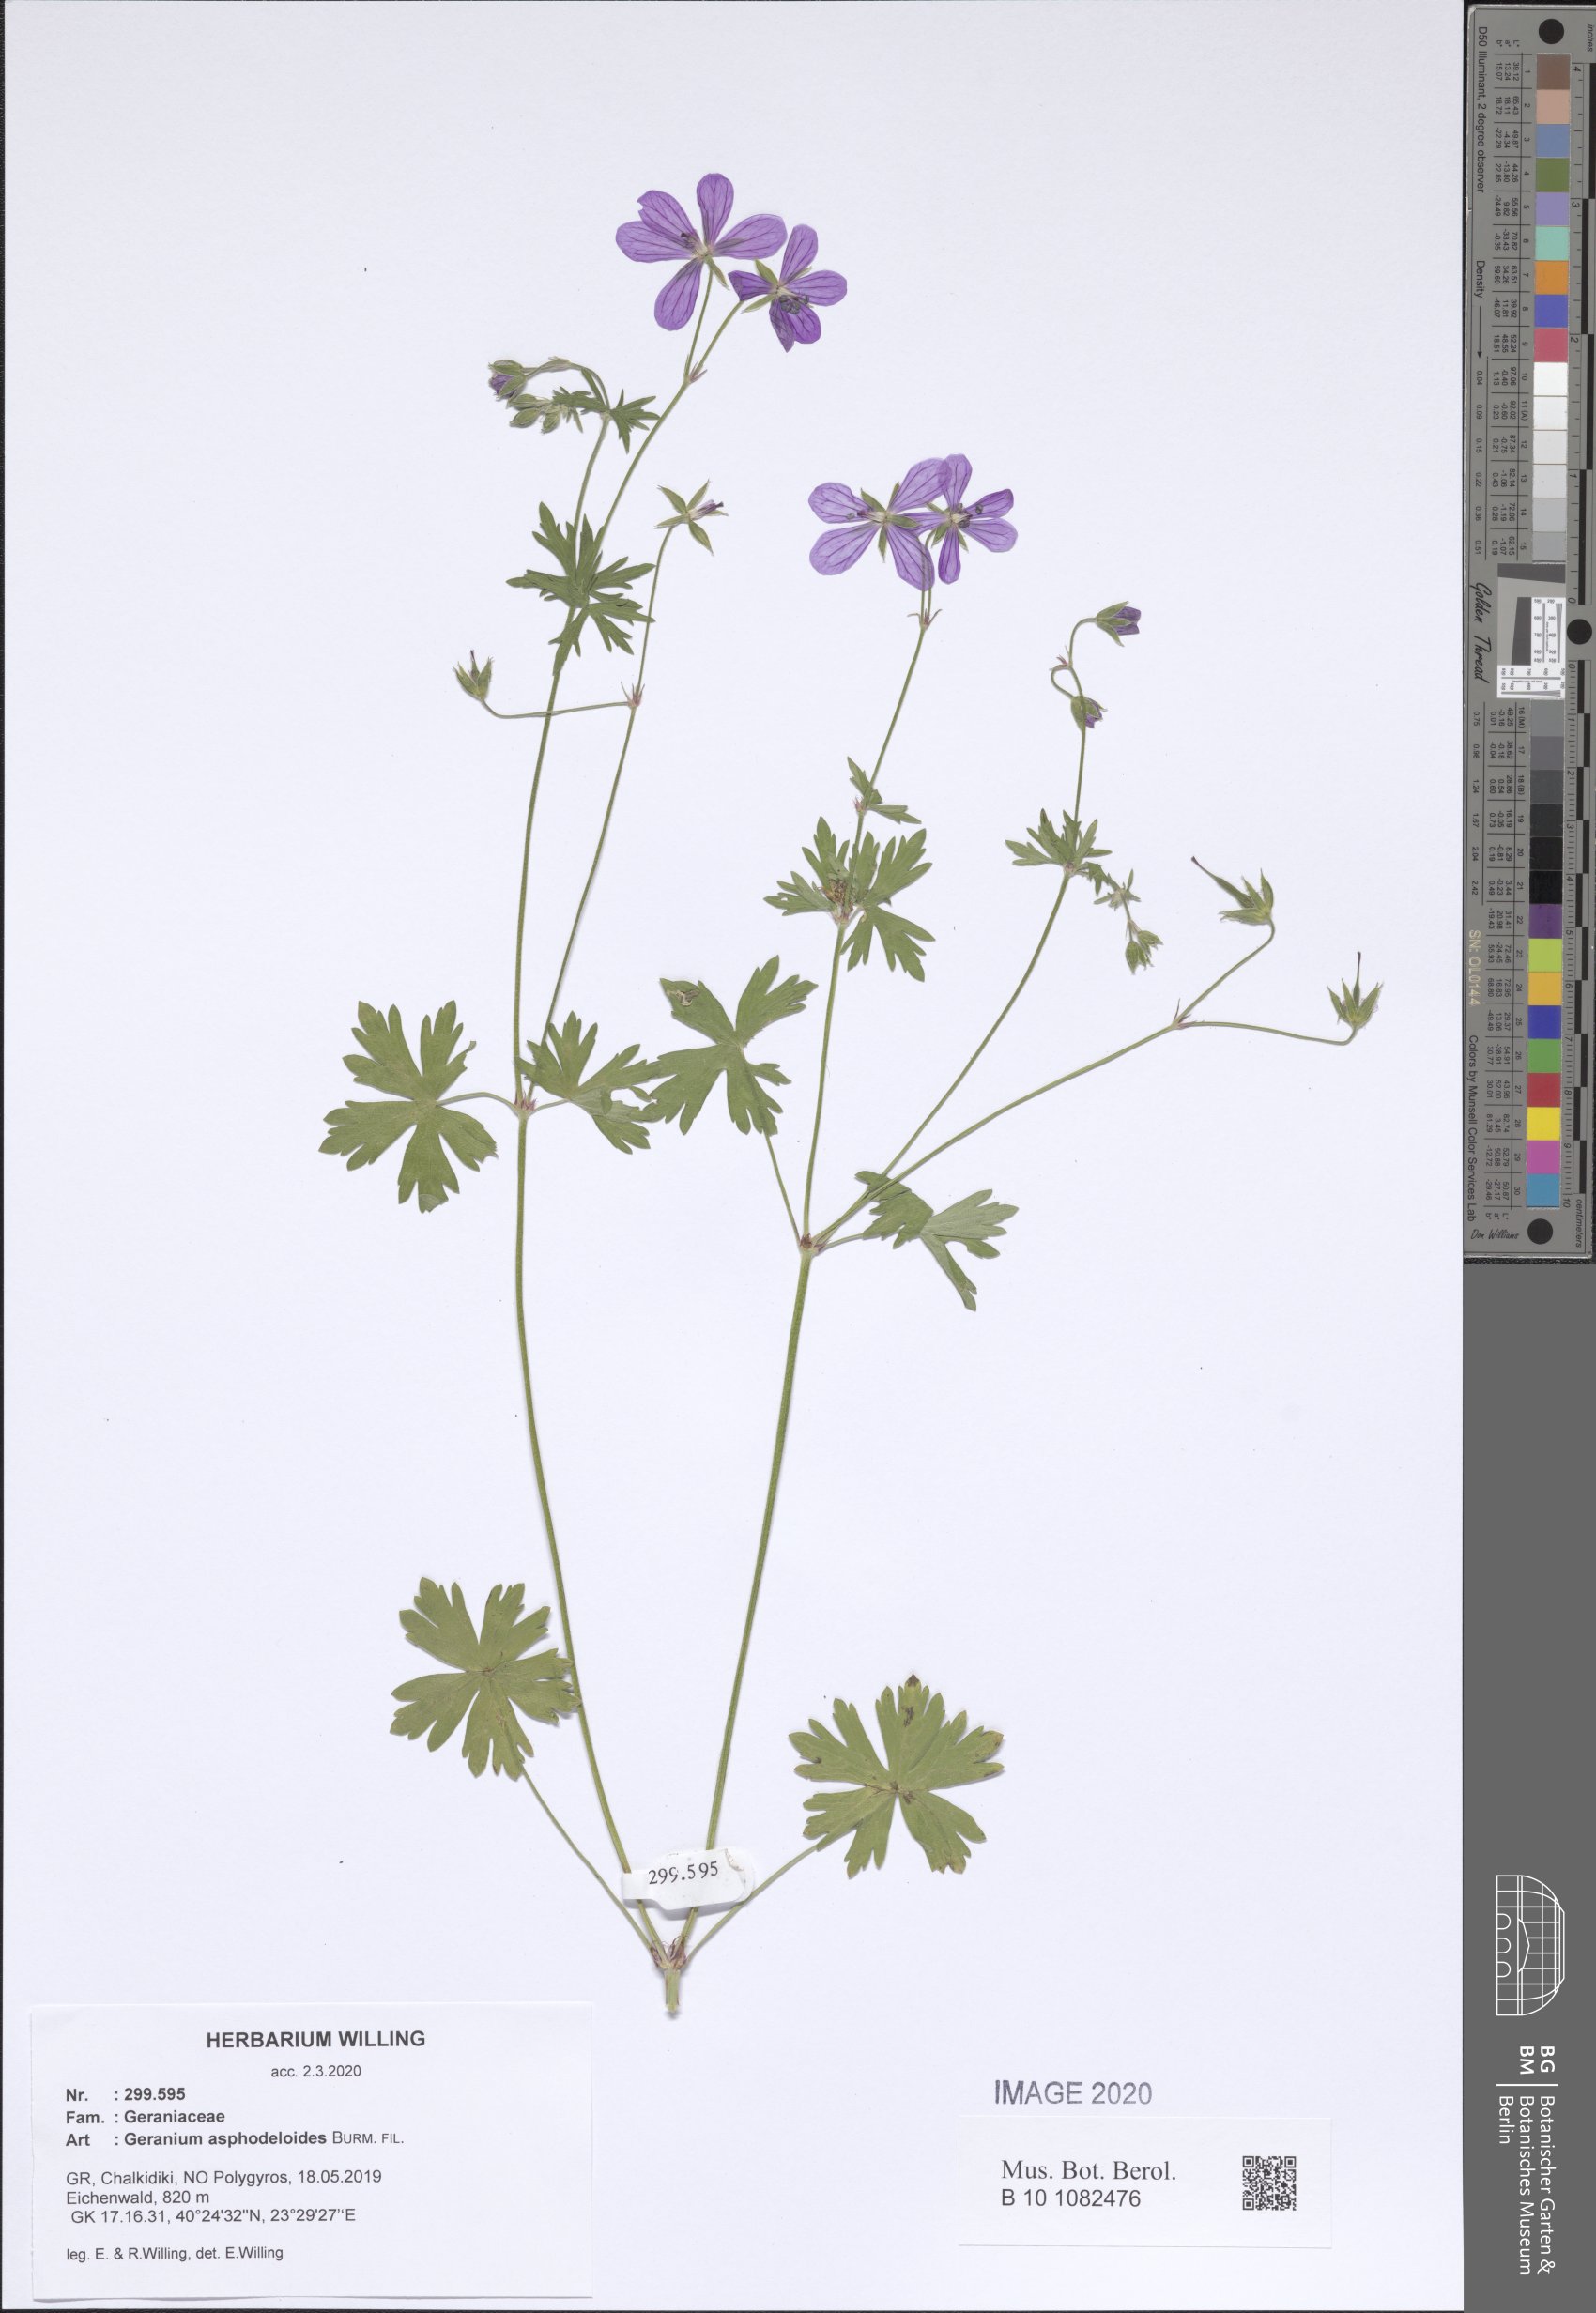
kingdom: Plantae
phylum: Tracheophyta
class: Magnoliopsida
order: Geraniales
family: Geraniaceae
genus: Geranium
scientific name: Geranium asphodeloides
